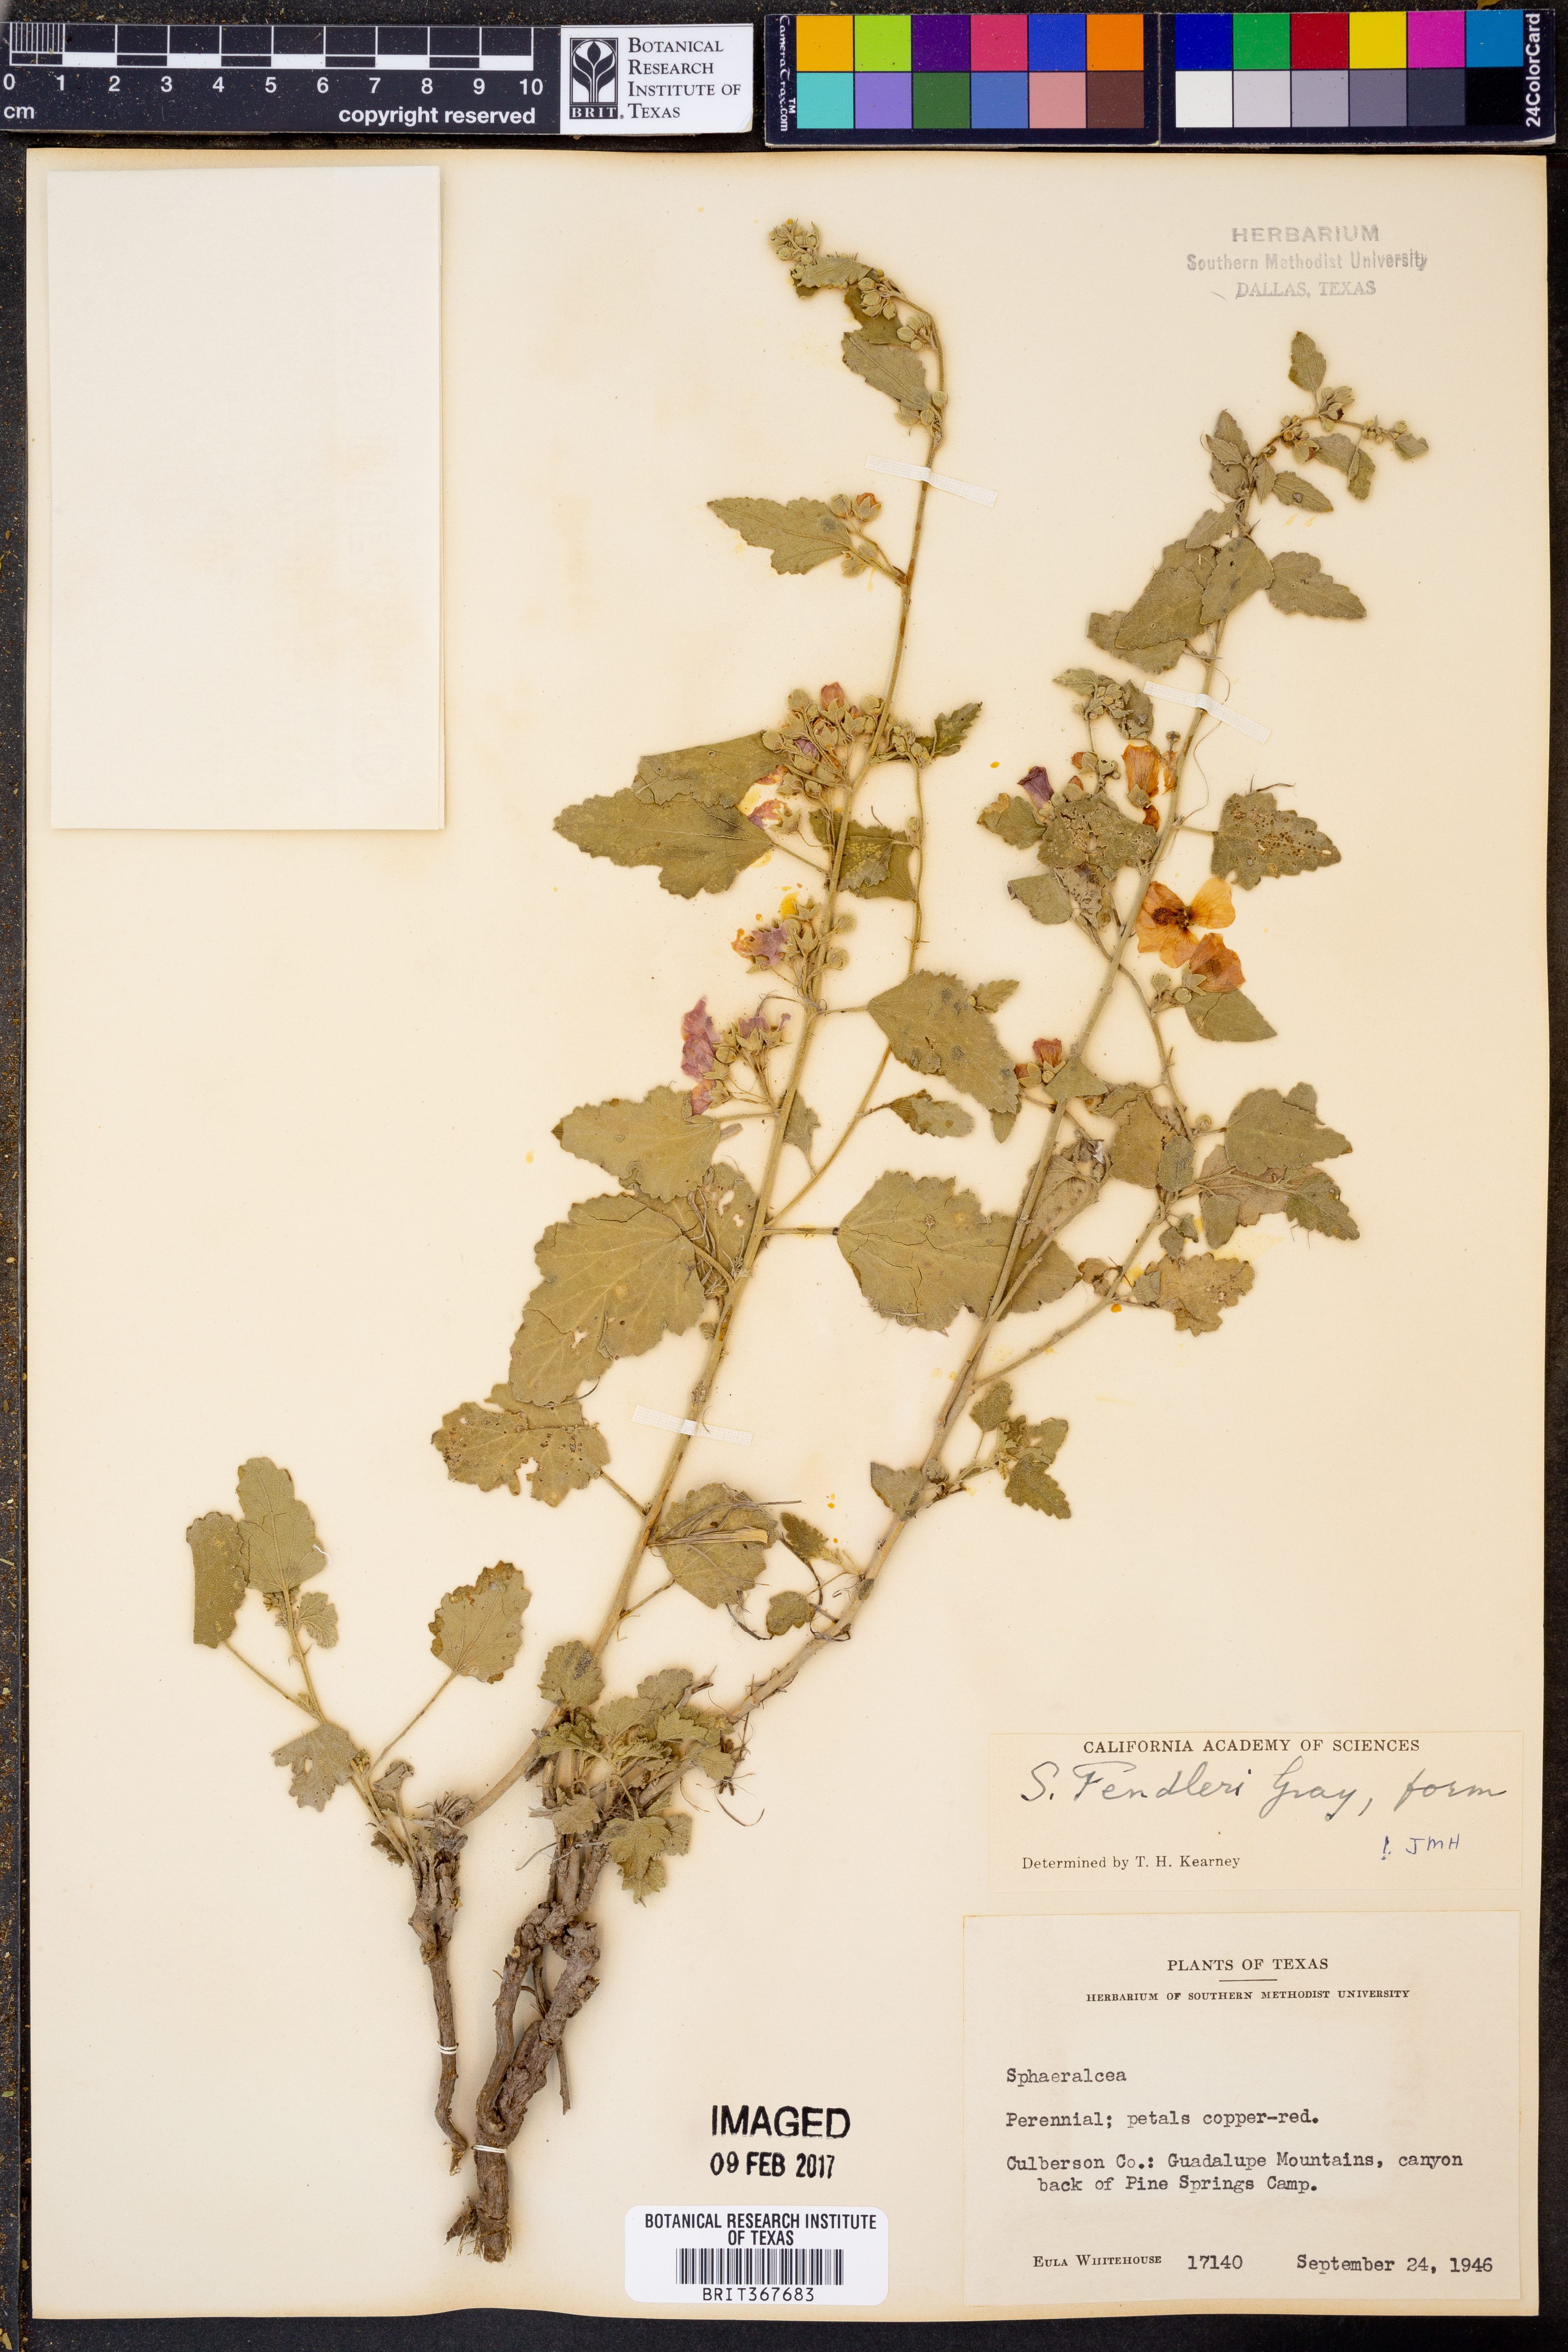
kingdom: Plantae
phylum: Tracheophyta
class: Magnoliopsida
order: Malvales
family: Malvaceae
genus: Sphaeralcea
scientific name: Sphaeralcea fendleri
